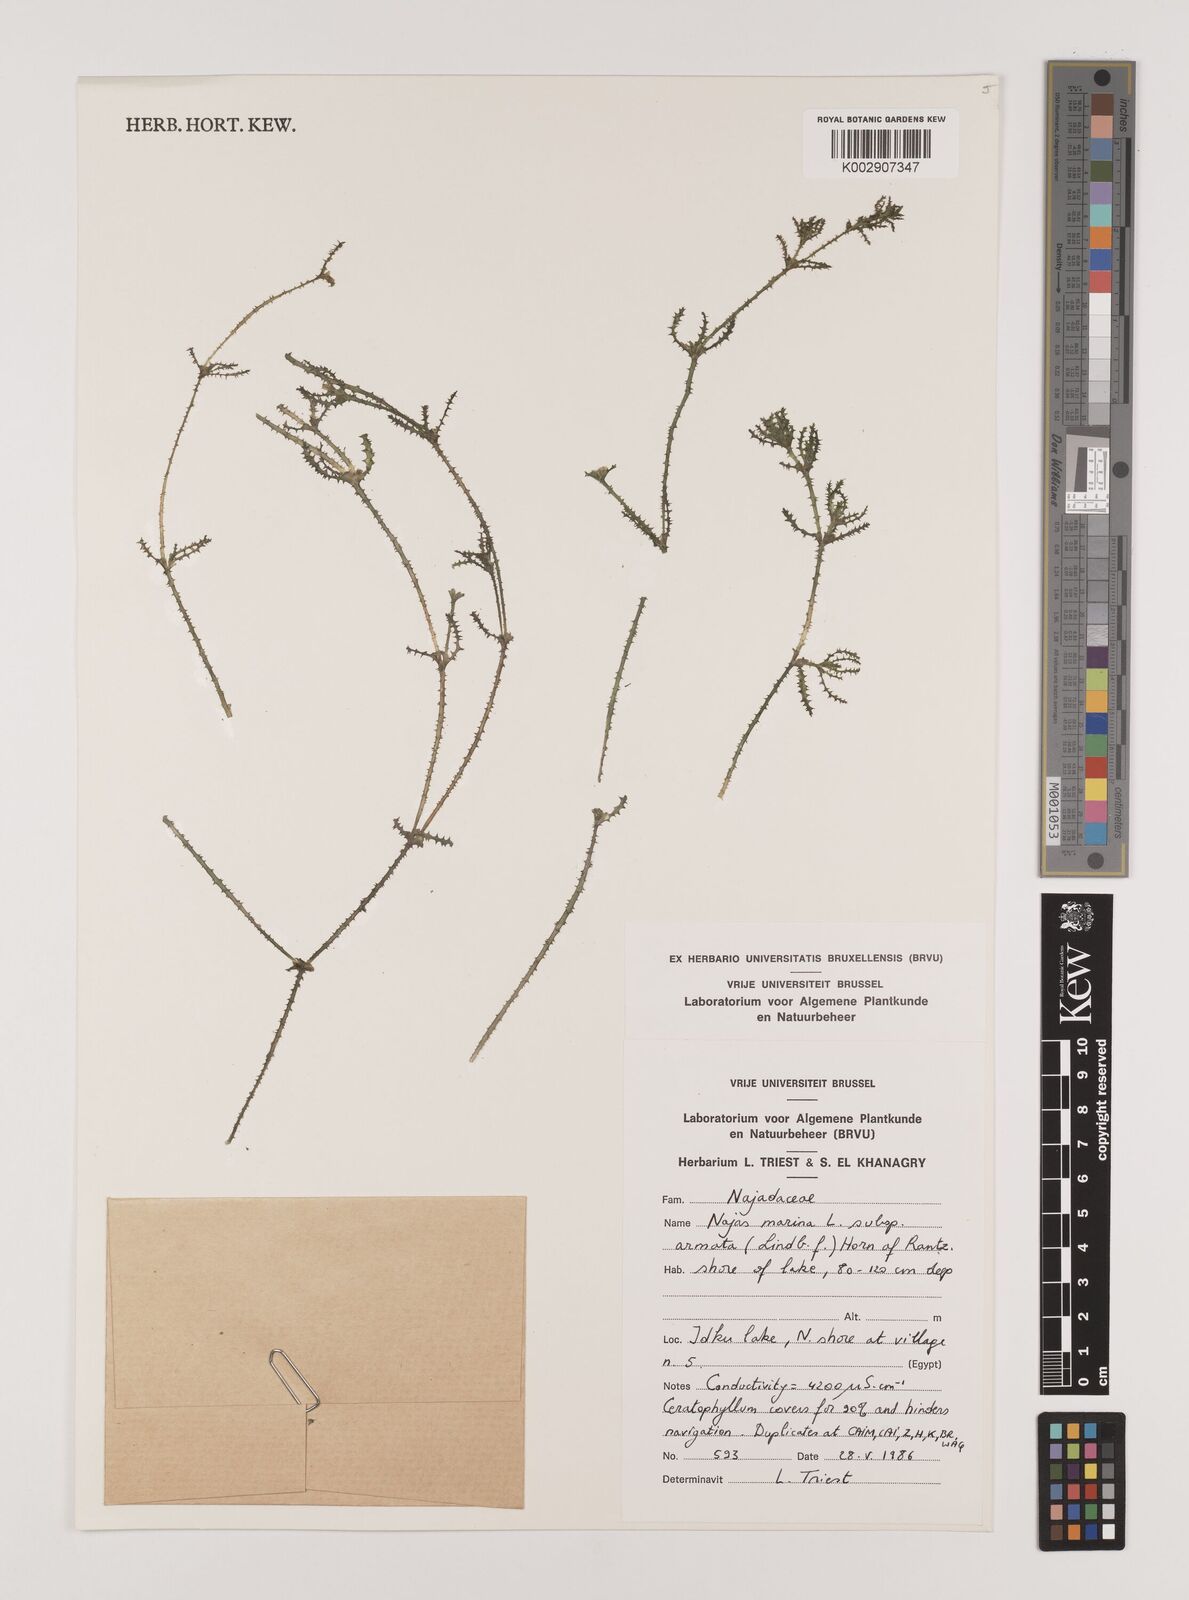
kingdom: Plantae
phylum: Tracheophyta
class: Liliopsida
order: Alismatales
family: Hydrocharitaceae
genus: Najas
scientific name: Najas marina
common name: Holly-leaved naiad
